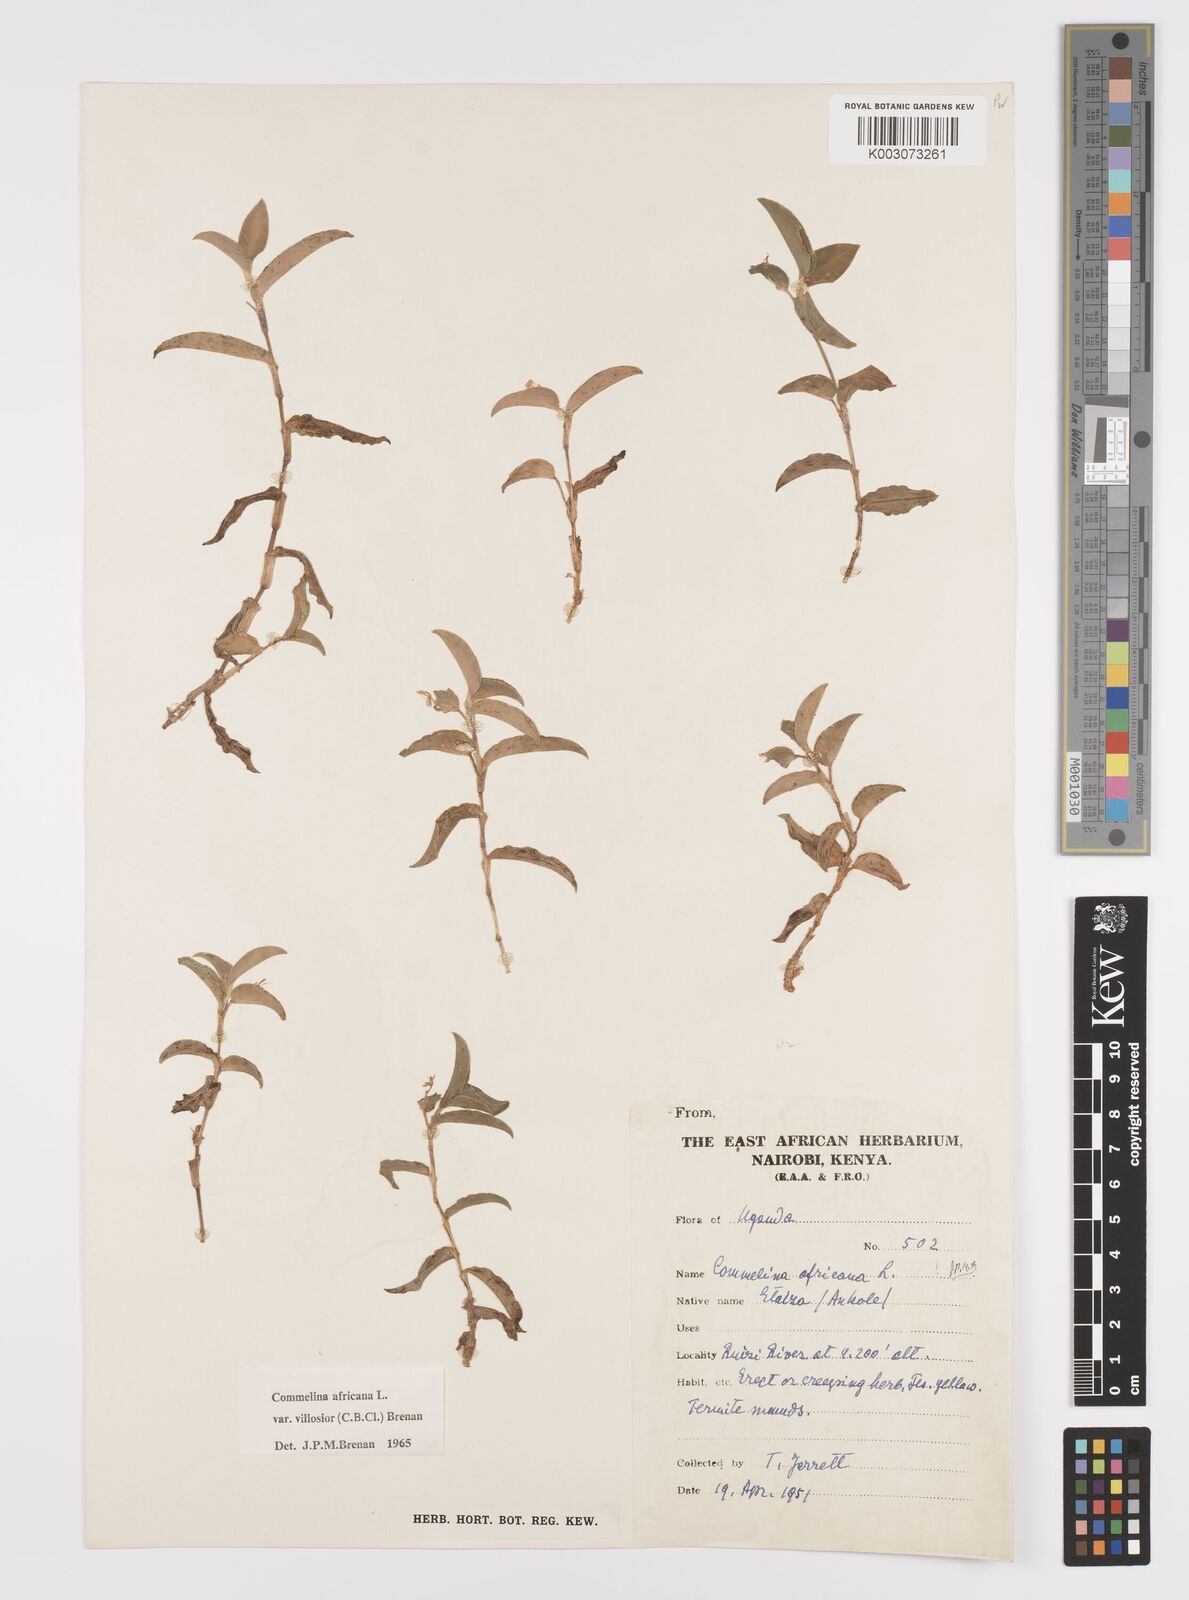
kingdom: Plantae
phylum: Tracheophyta
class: Liliopsida
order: Commelinales
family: Commelinaceae
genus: Commelina
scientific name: Commelina africana
